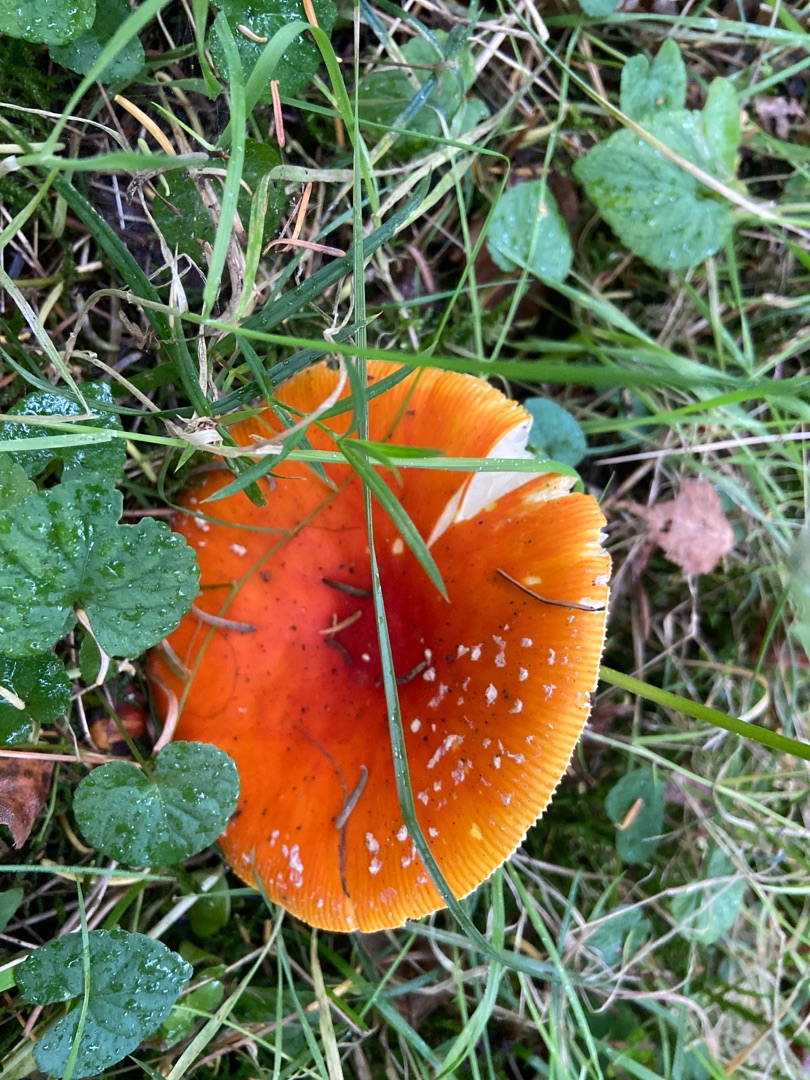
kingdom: Fungi
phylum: Basidiomycota
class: Agaricomycetes
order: Agaricales
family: Amanitaceae
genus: Amanita
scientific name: Amanita muscaria
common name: Rød fluesvamp
